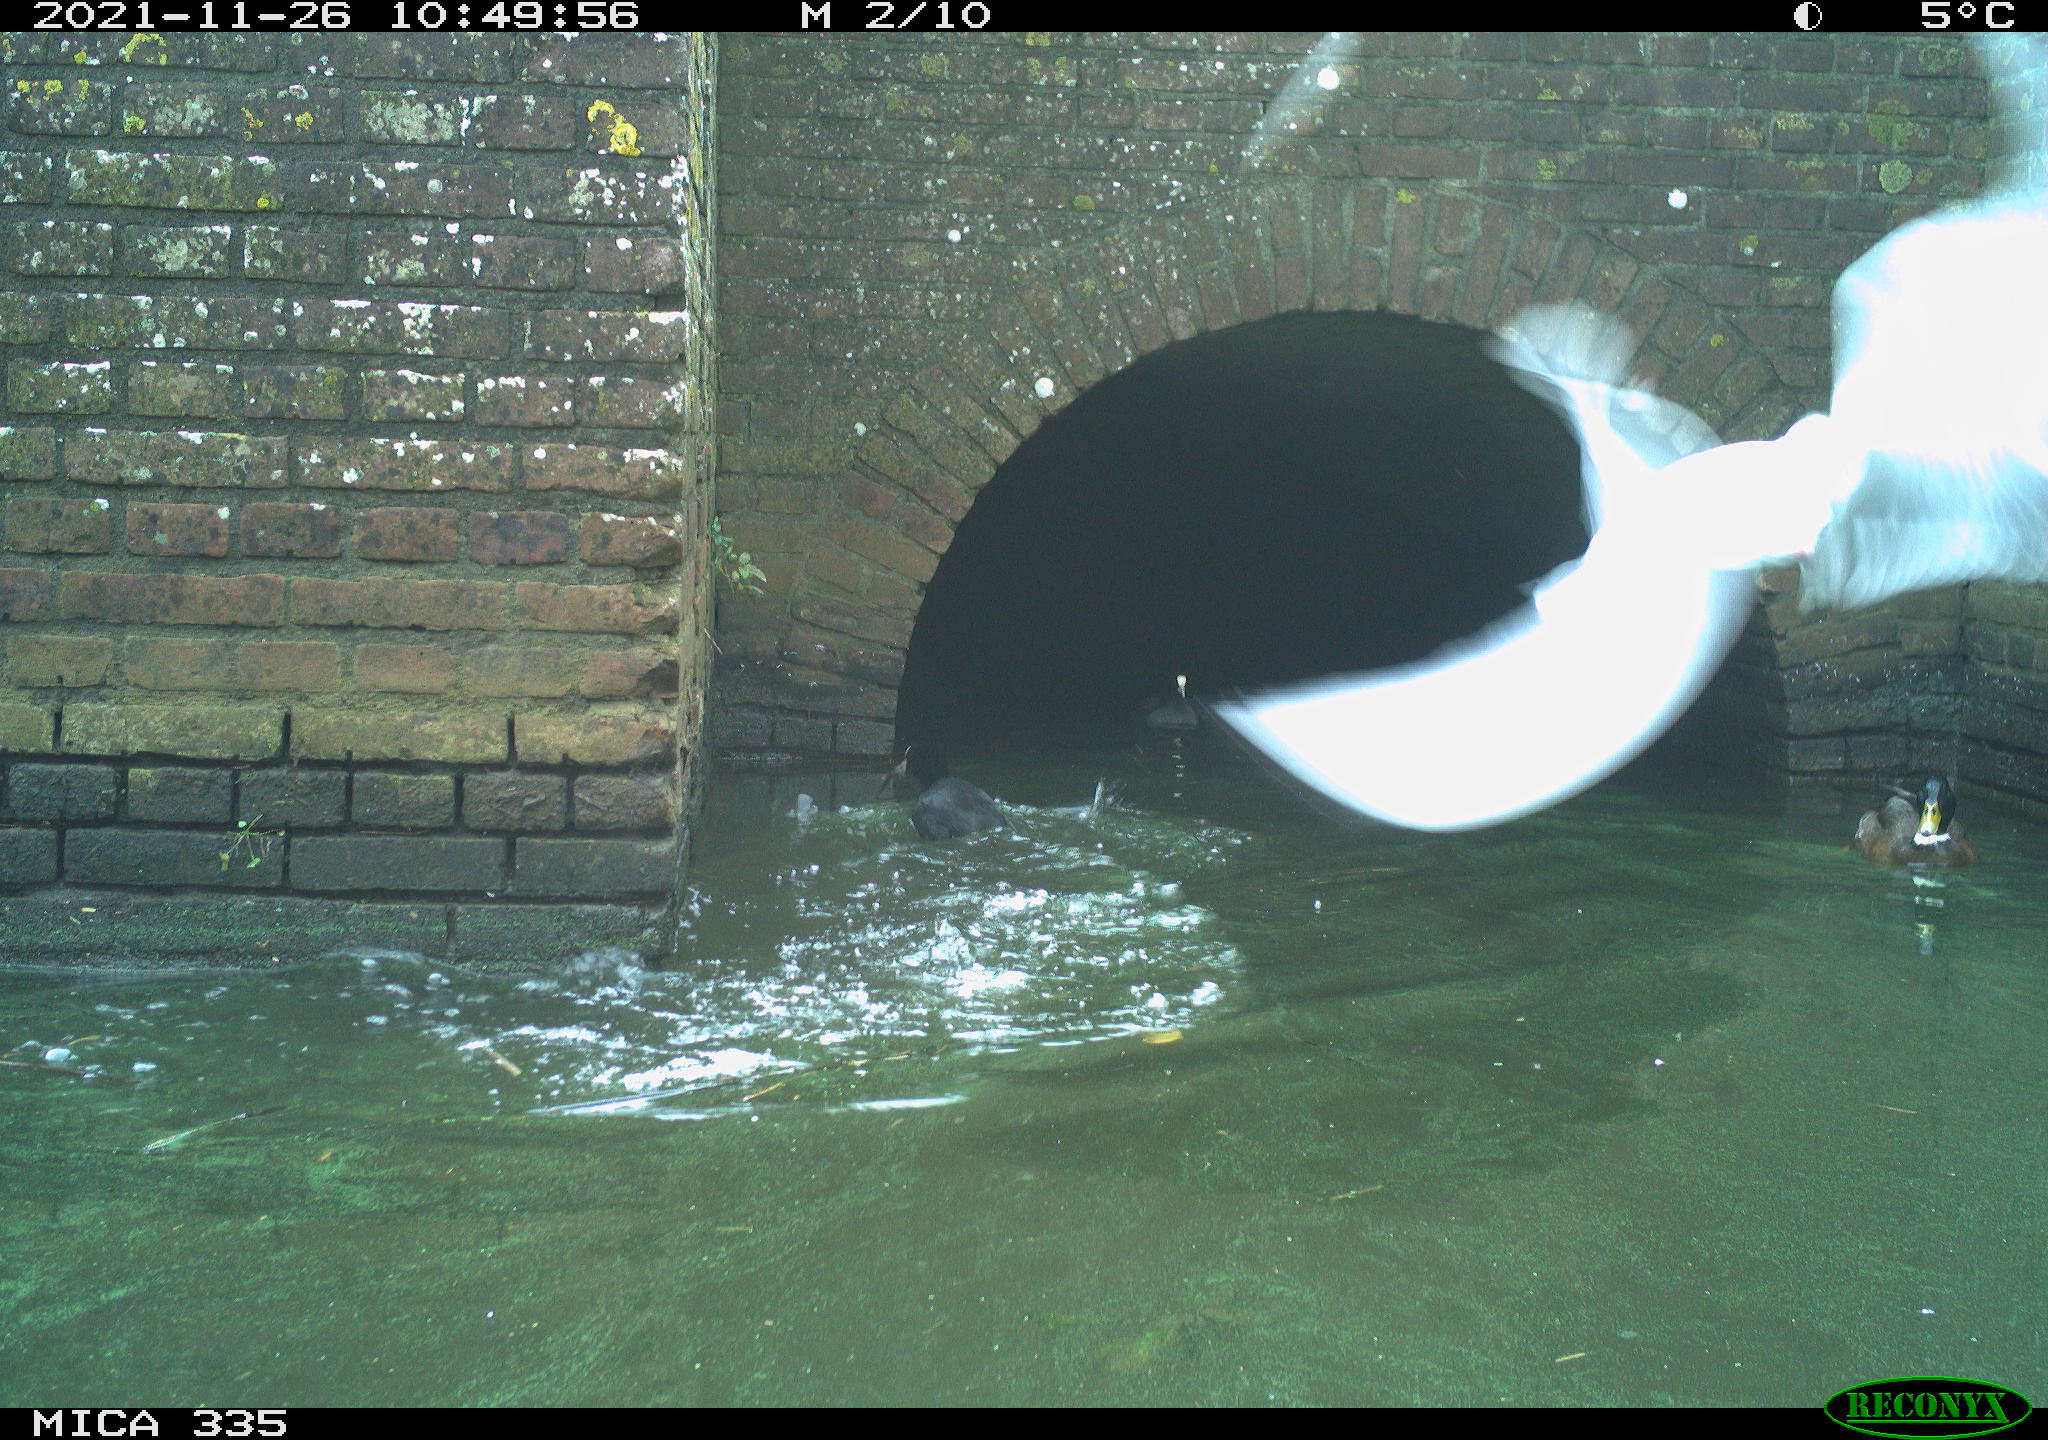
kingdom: Animalia
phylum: Chordata
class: Aves
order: Anseriformes
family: Anatidae
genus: Anas
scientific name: Anas platyrhynchos
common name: Mallard
